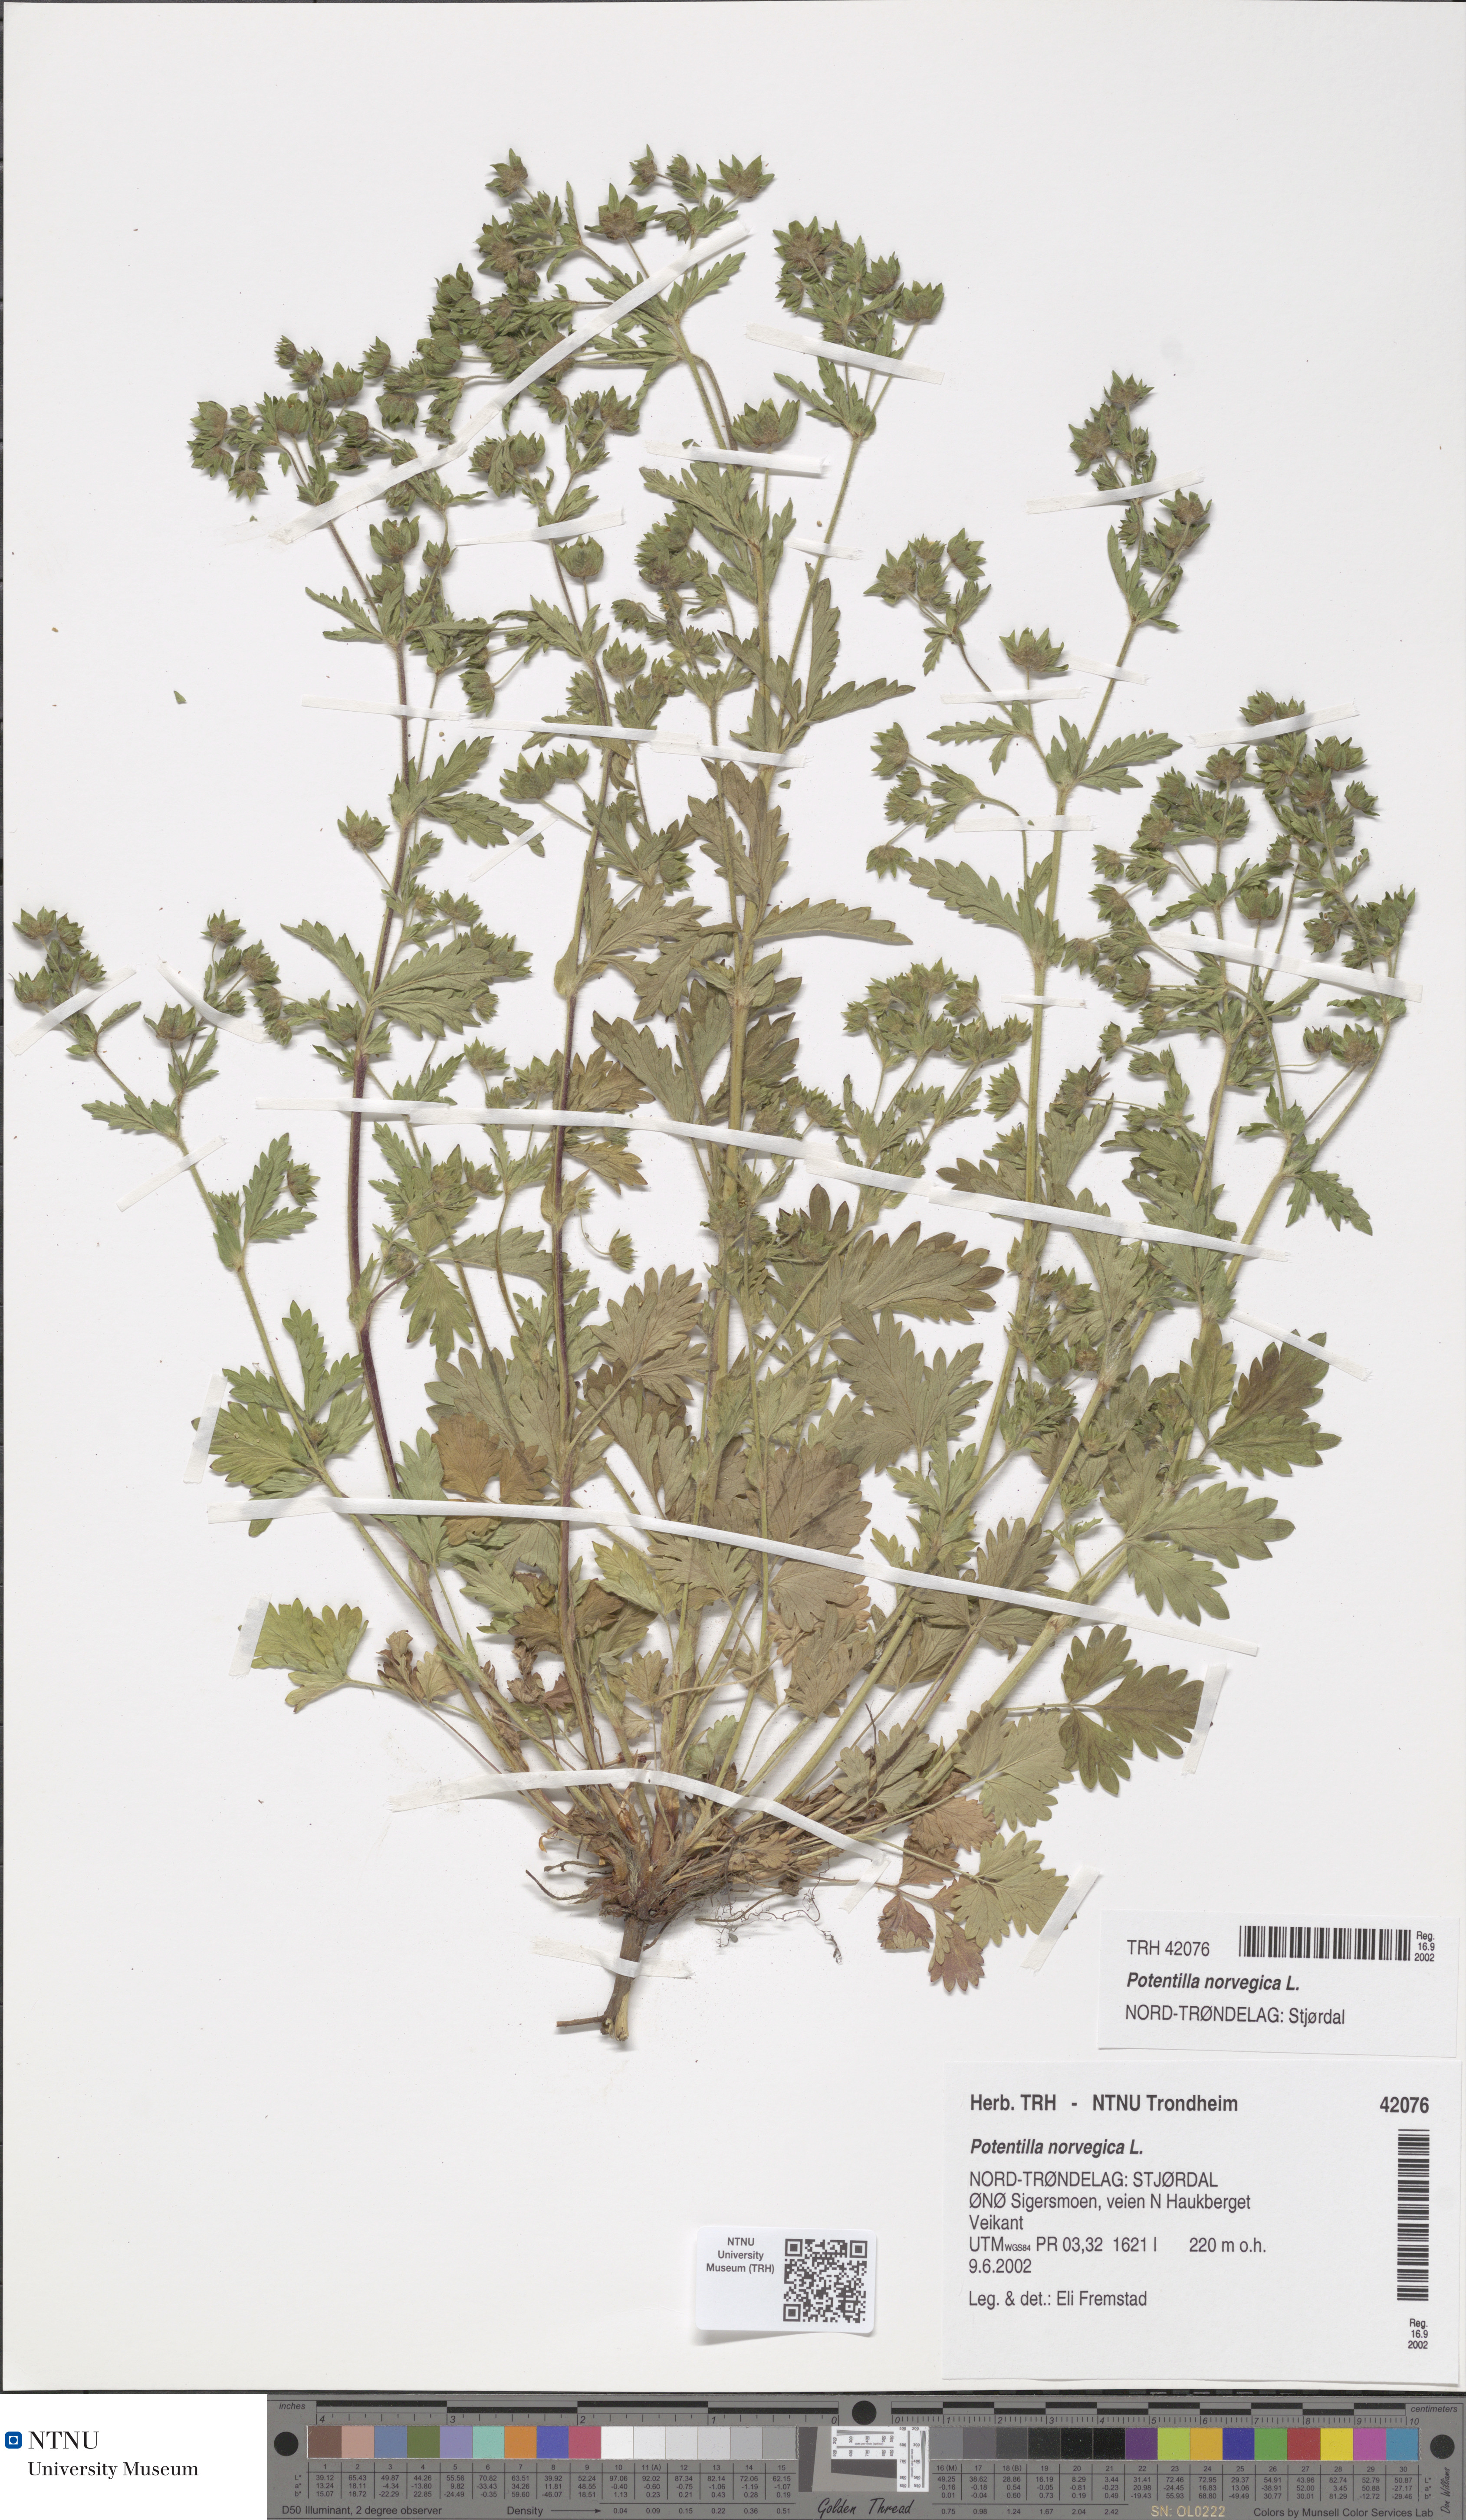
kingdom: Plantae
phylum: Tracheophyta
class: Magnoliopsida
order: Rosales
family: Rosaceae
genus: Potentilla
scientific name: Potentilla norvegica
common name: Ternate-leaved cinquefoil
